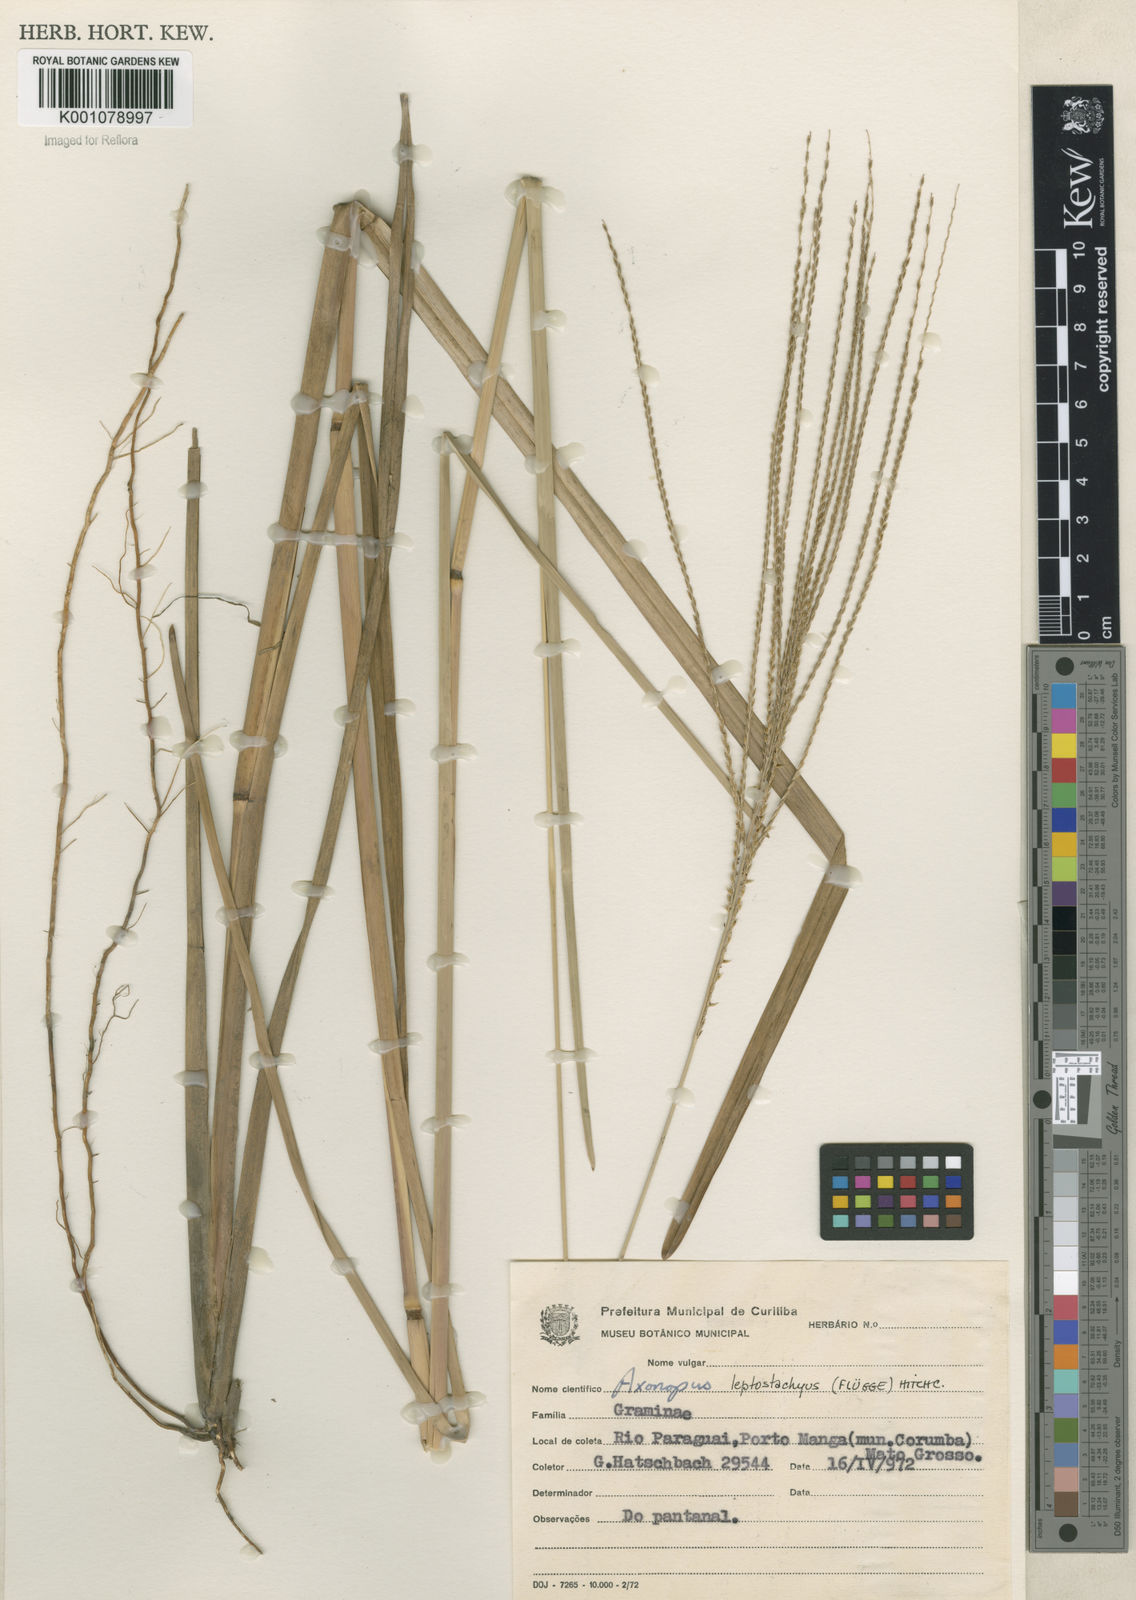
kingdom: Plantae
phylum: Tracheophyta
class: Liliopsida
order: Poales
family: Poaceae
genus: Axonopus
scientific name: Axonopus
